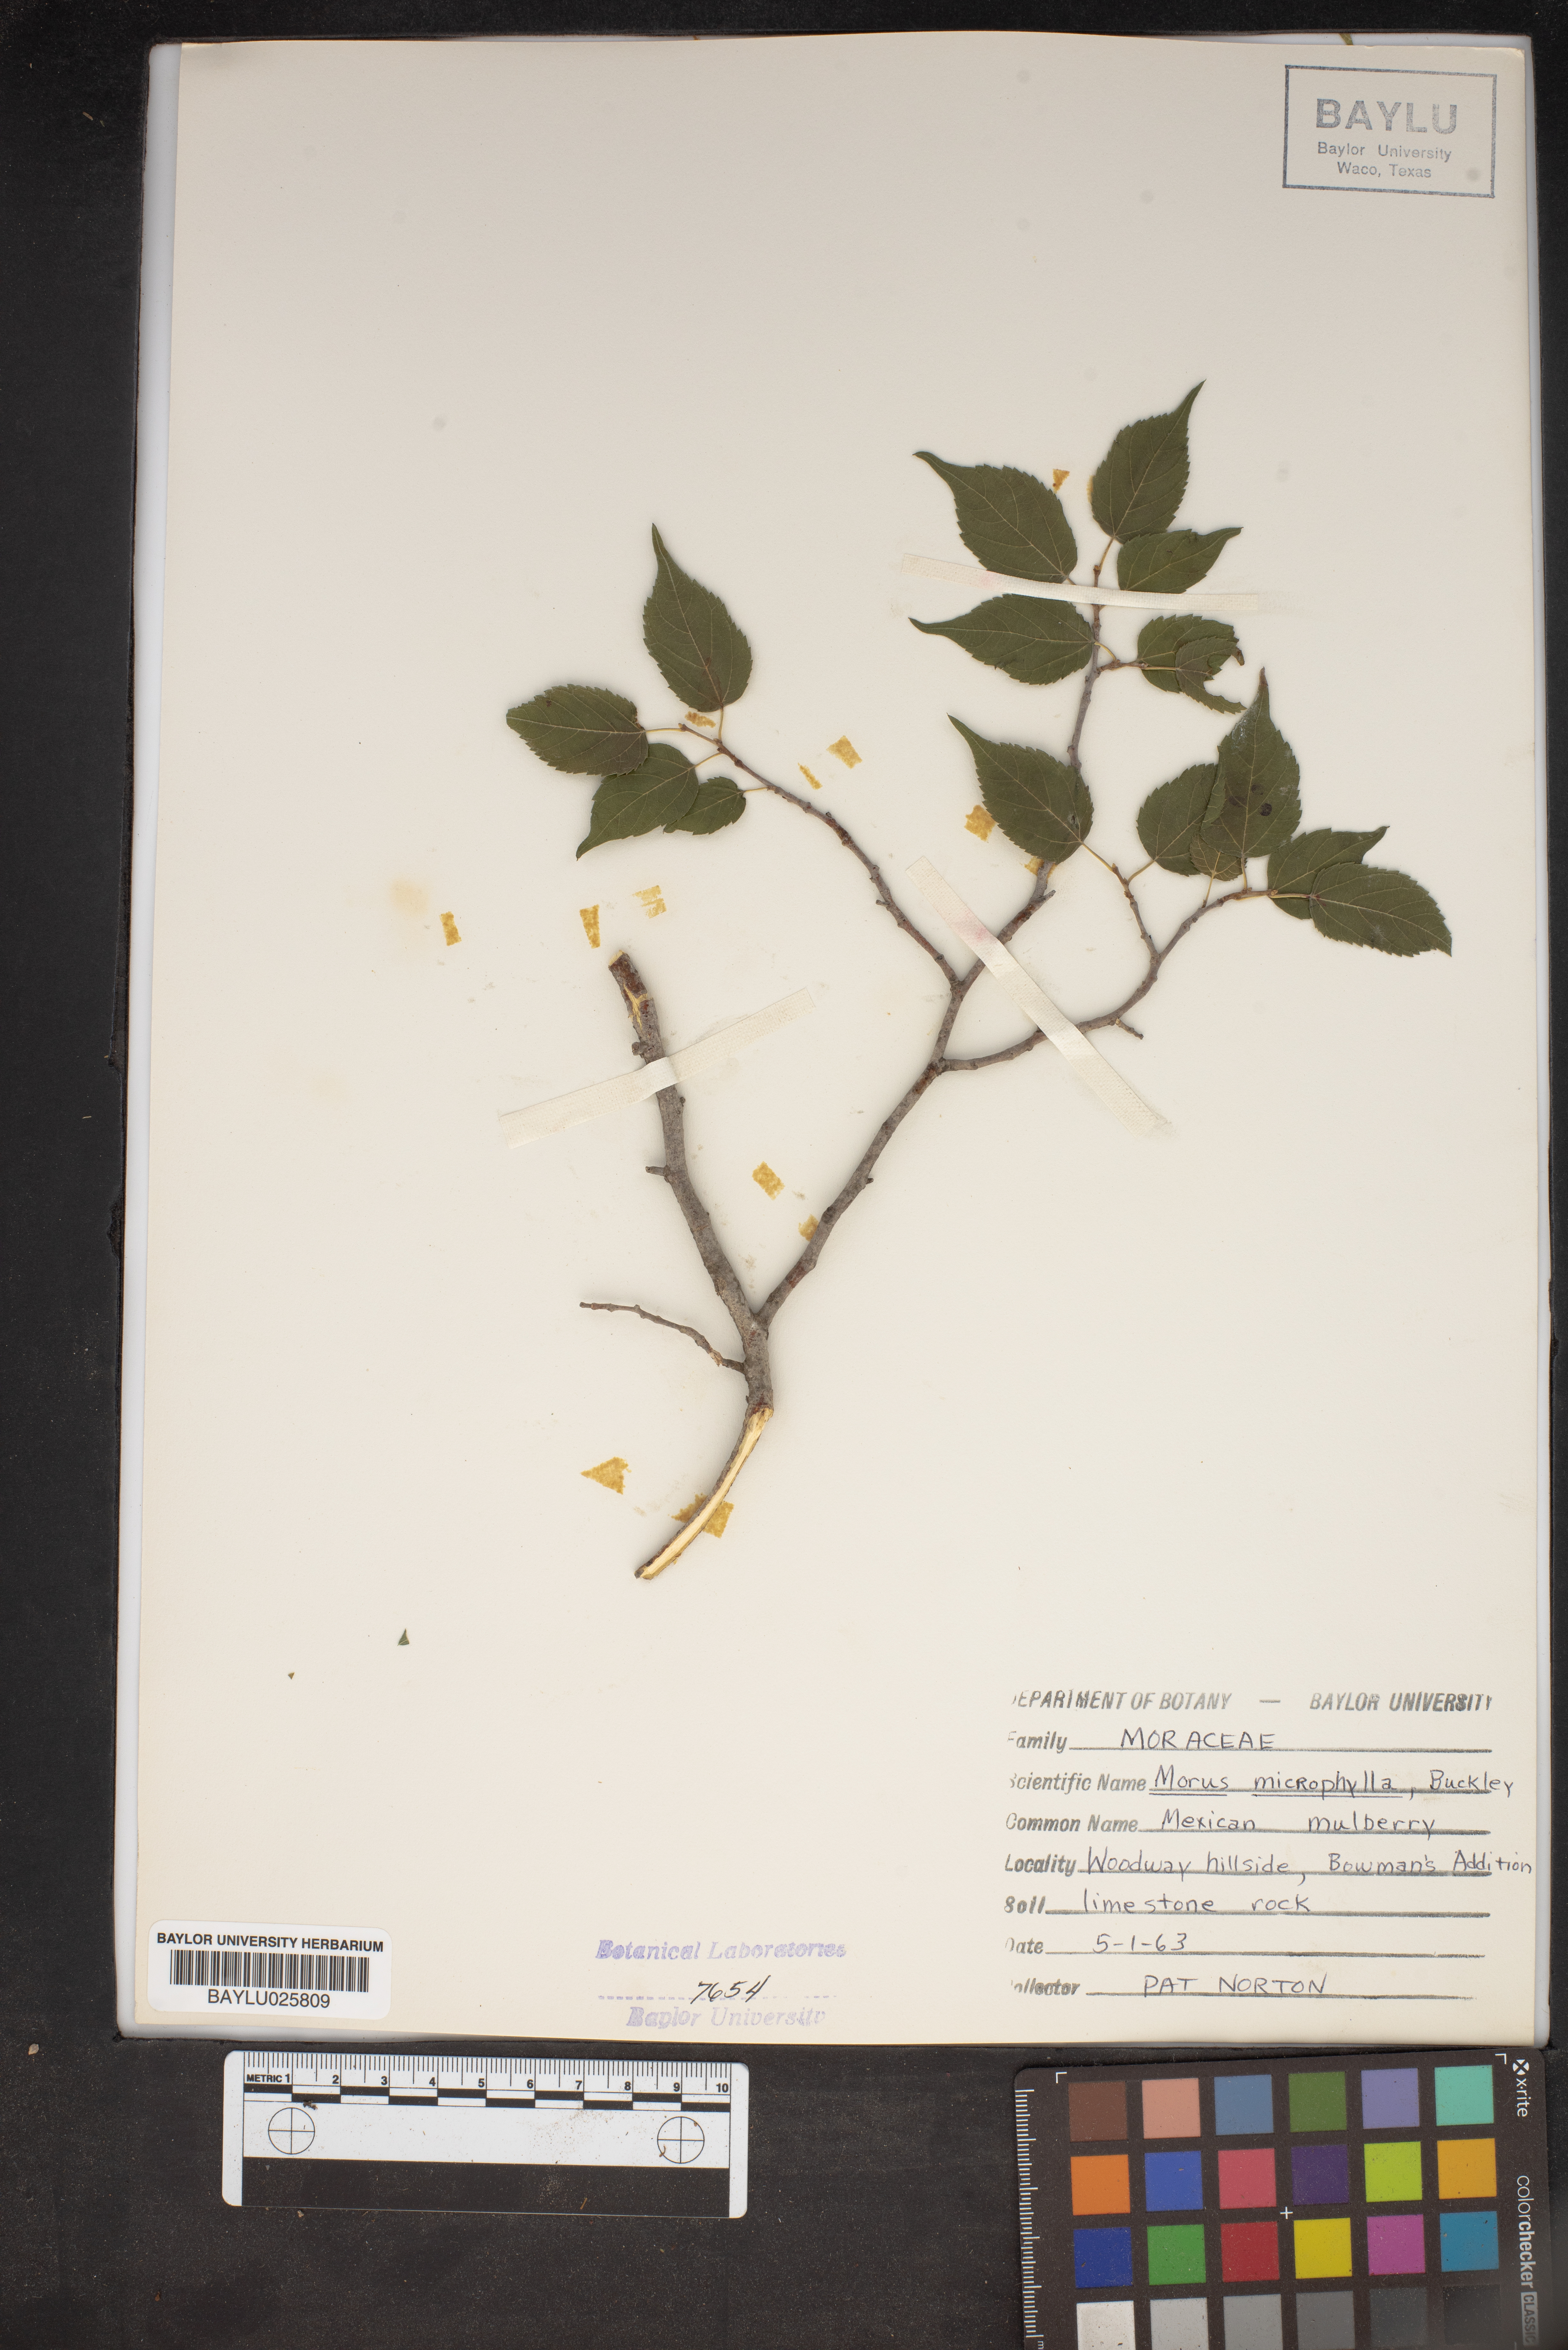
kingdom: Plantae
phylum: Tracheophyta
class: Magnoliopsida
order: Rosales
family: Moraceae
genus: Morus
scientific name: Morus microphylla
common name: Mexican mulberry
